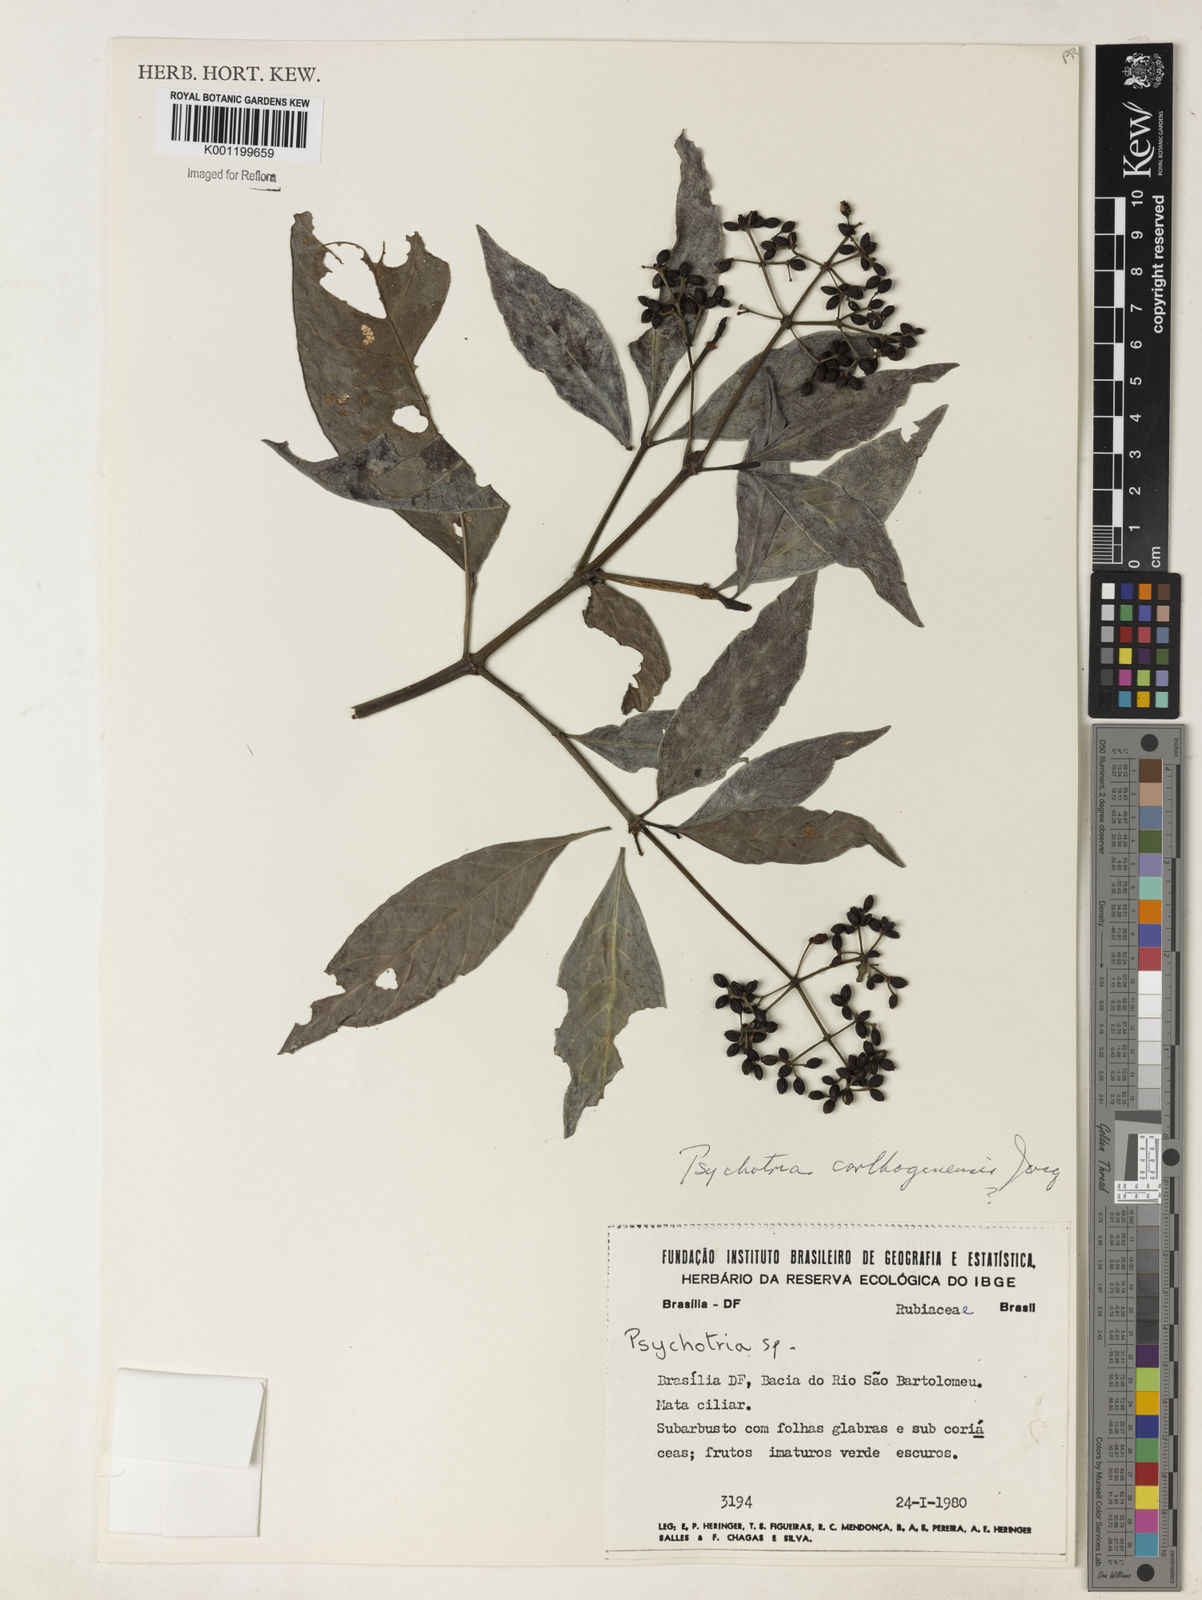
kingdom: Plantae
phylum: Tracheophyta
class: Magnoliopsida
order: Gentianales
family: Rubiaceae
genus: Psychotria
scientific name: Psychotria carthagenensis
